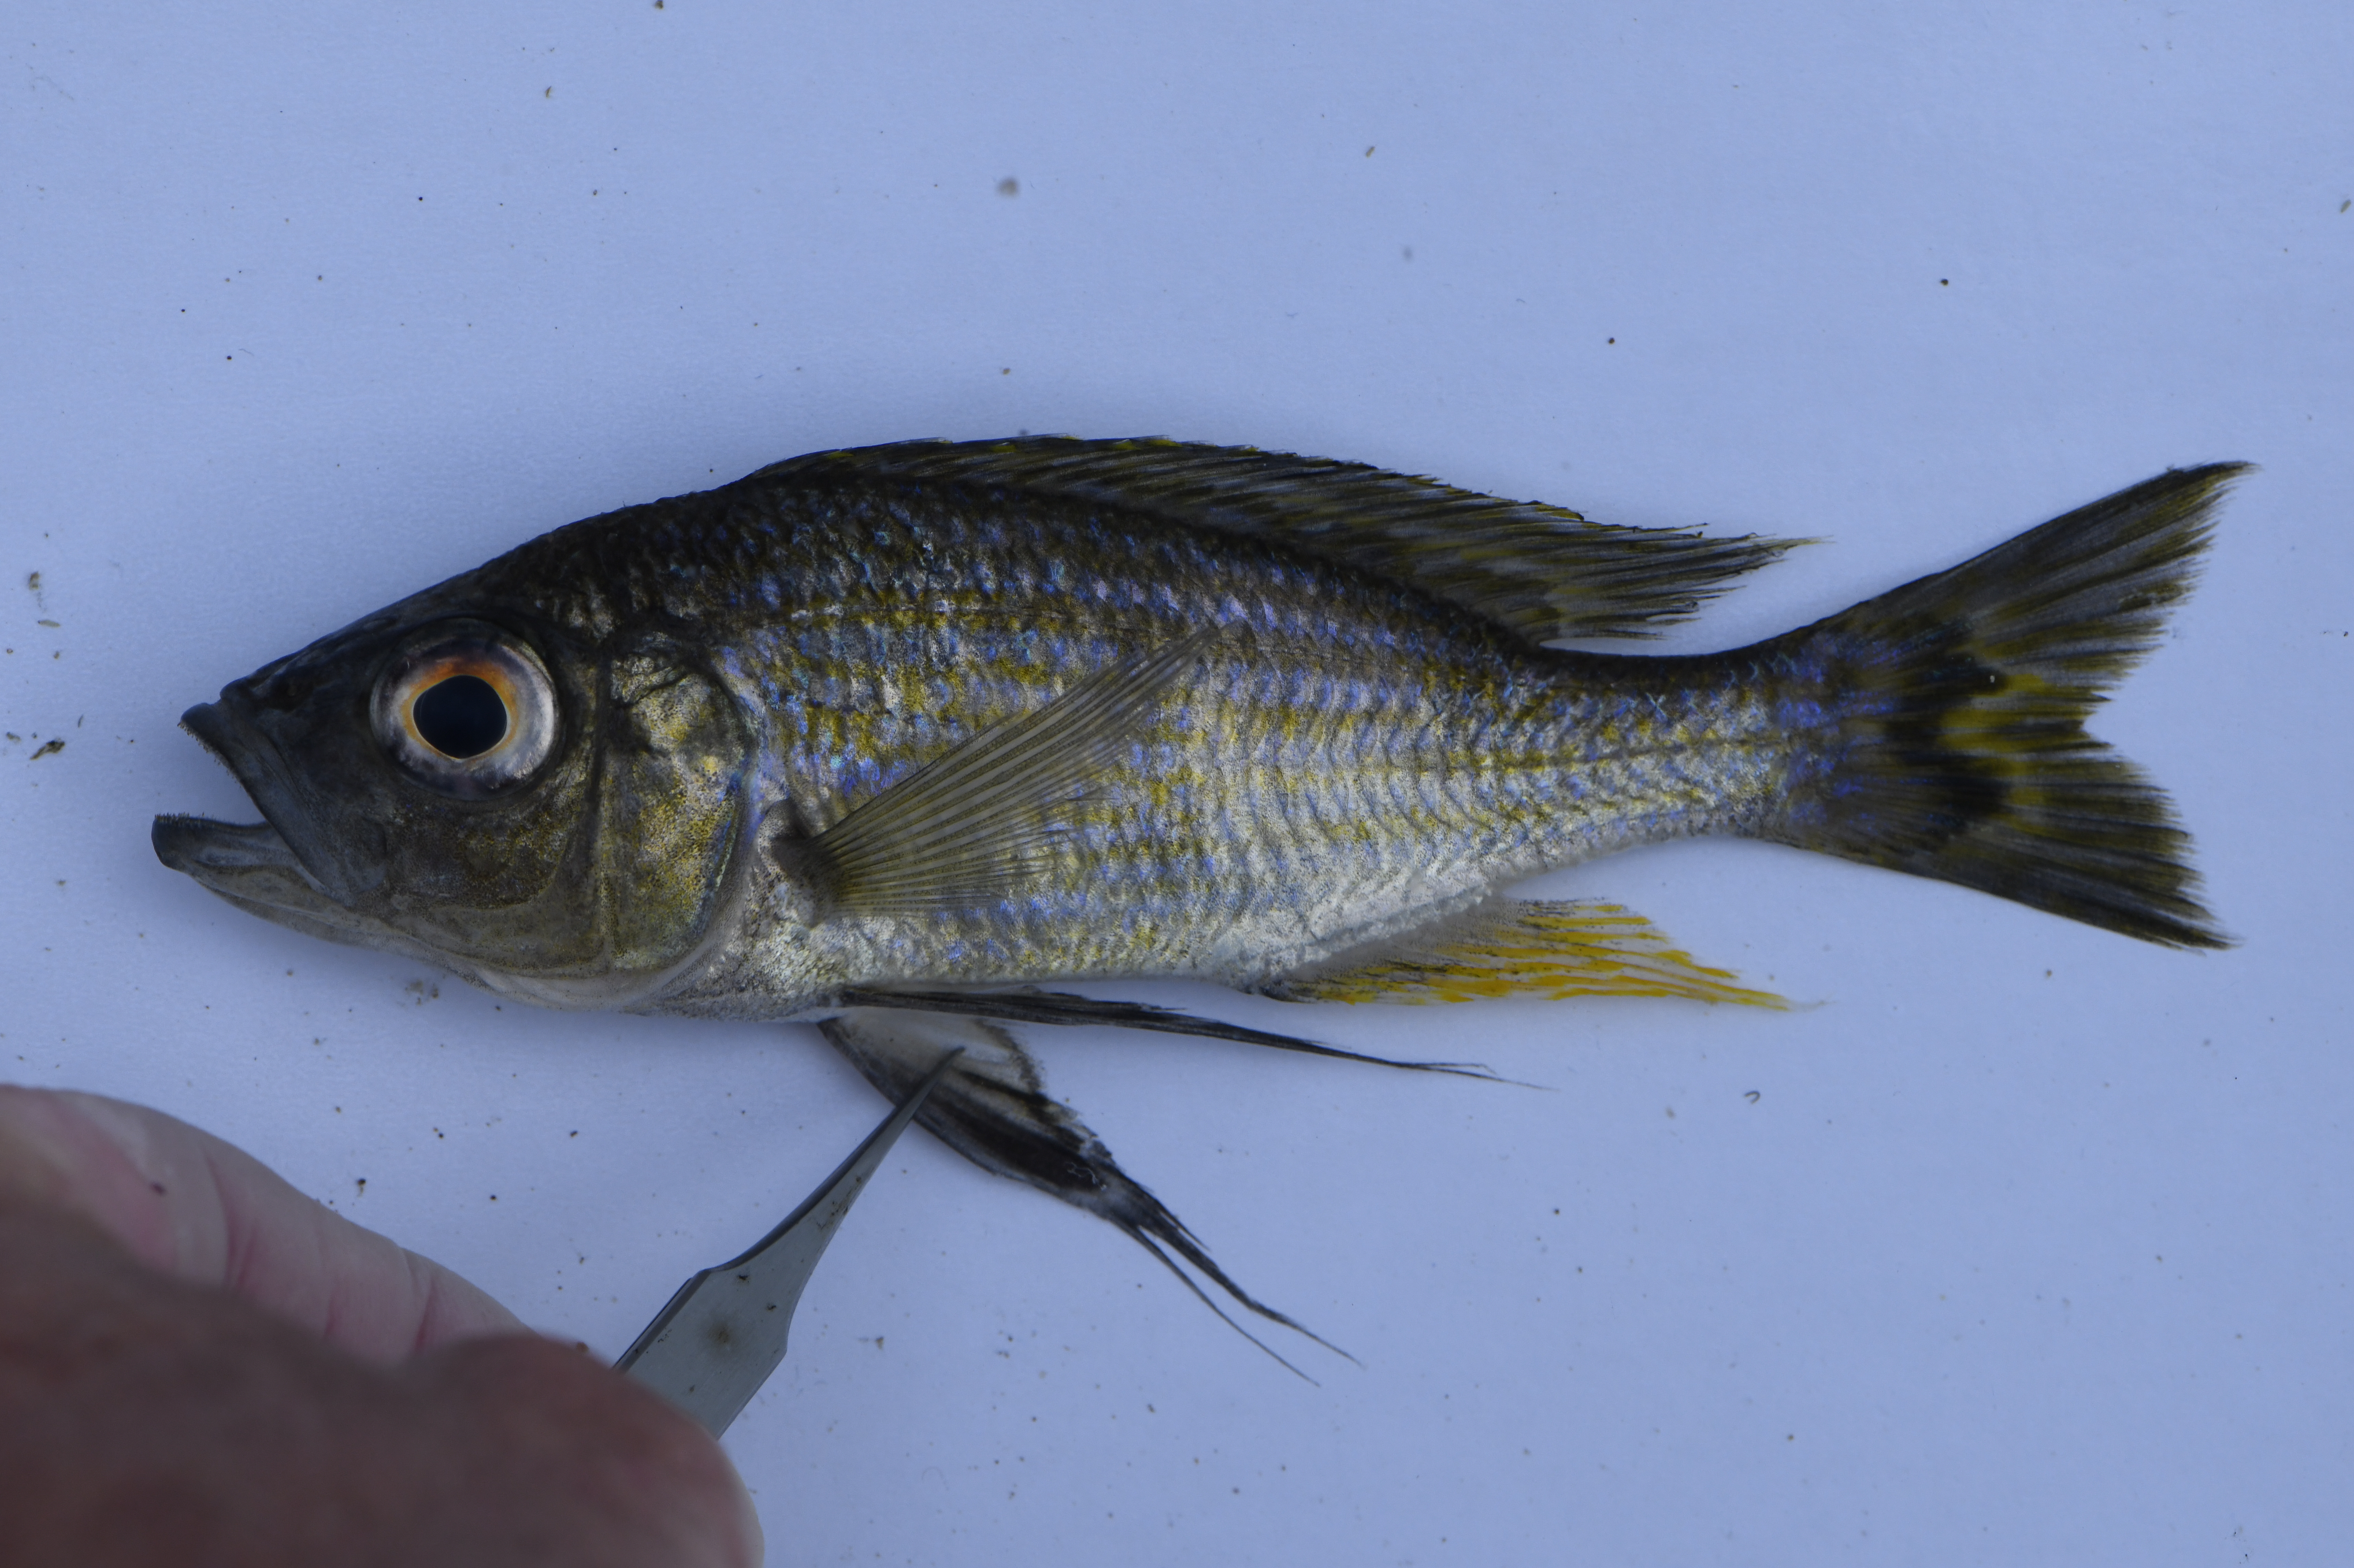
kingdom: Animalia
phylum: Chordata
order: Perciformes
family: Cichlidae
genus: Aulonocranus
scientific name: Aulonocranus dewindti
